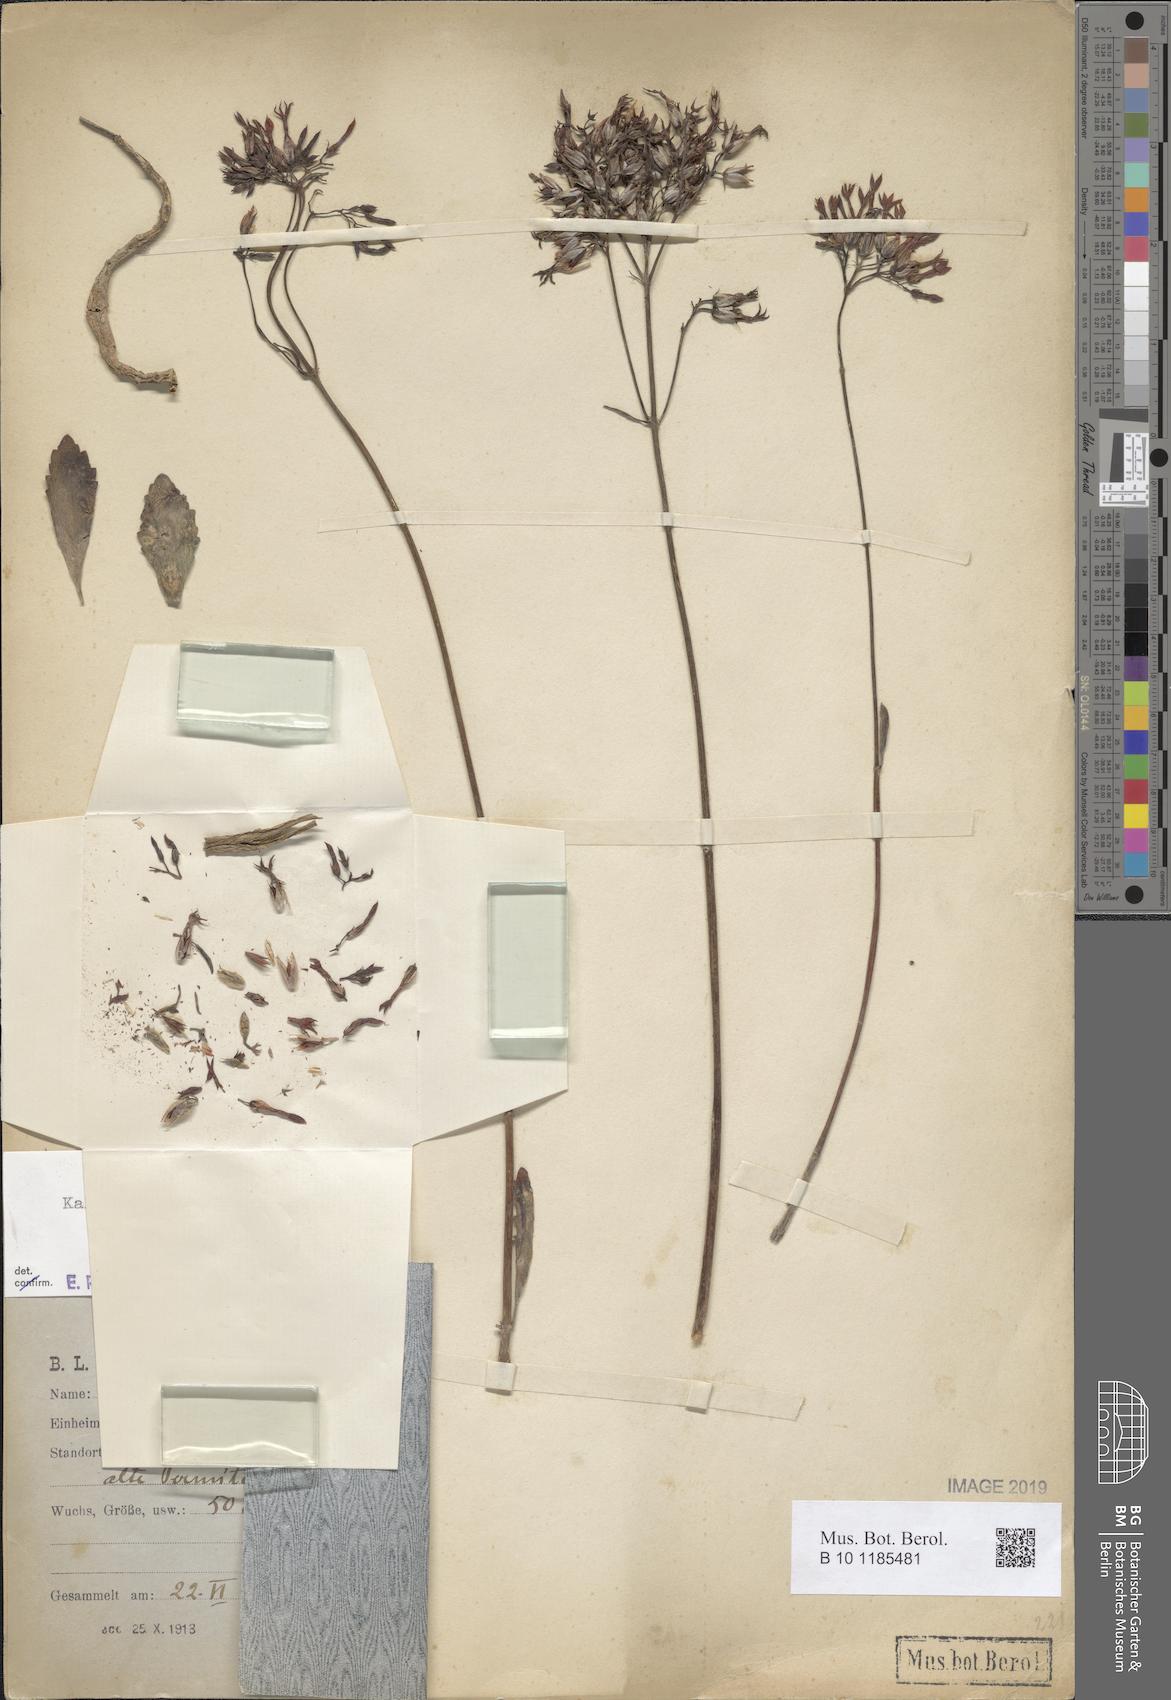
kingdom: Plantae
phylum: Tracheophyta
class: Magnoliopsida
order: Saxifragales
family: Crassulaceae
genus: Kalanchoe
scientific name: Kalanchoe glaucescens
